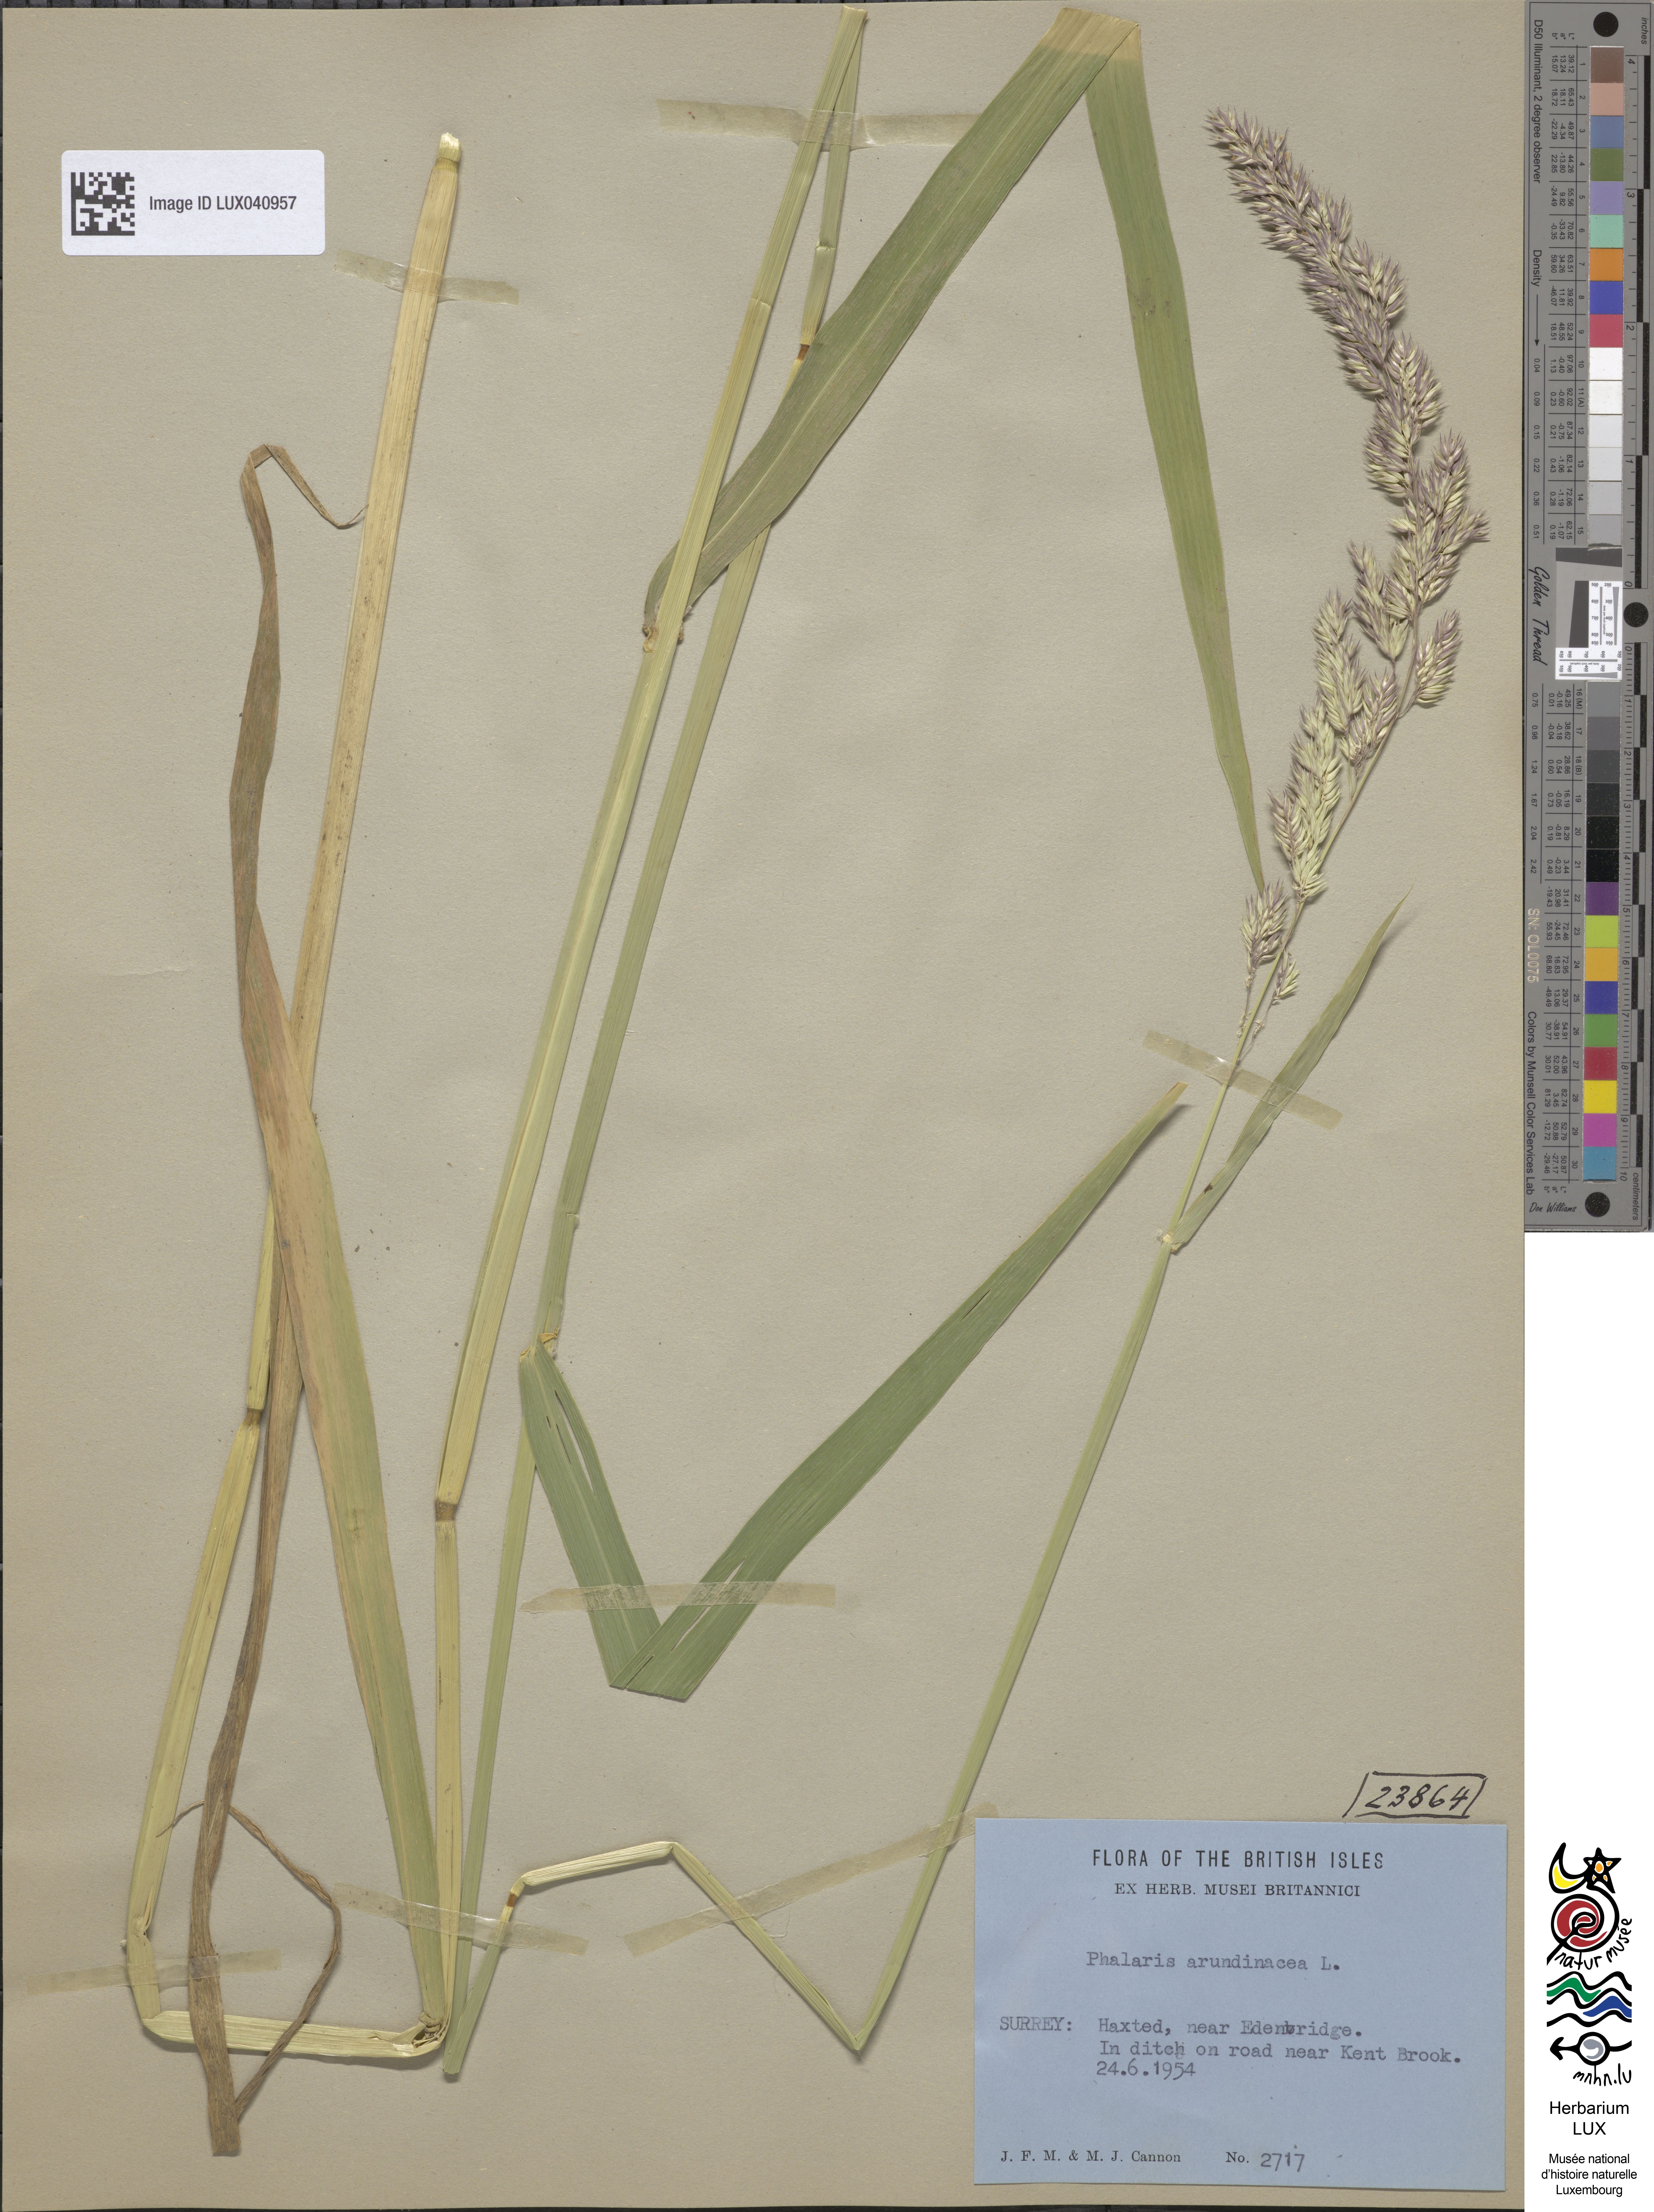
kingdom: Plantae
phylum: Tracheophyta
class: Liliopsida
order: Poales
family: Poaceae
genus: Phalaris
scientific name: Phalaris arundinacea
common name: Reed canary-grass
